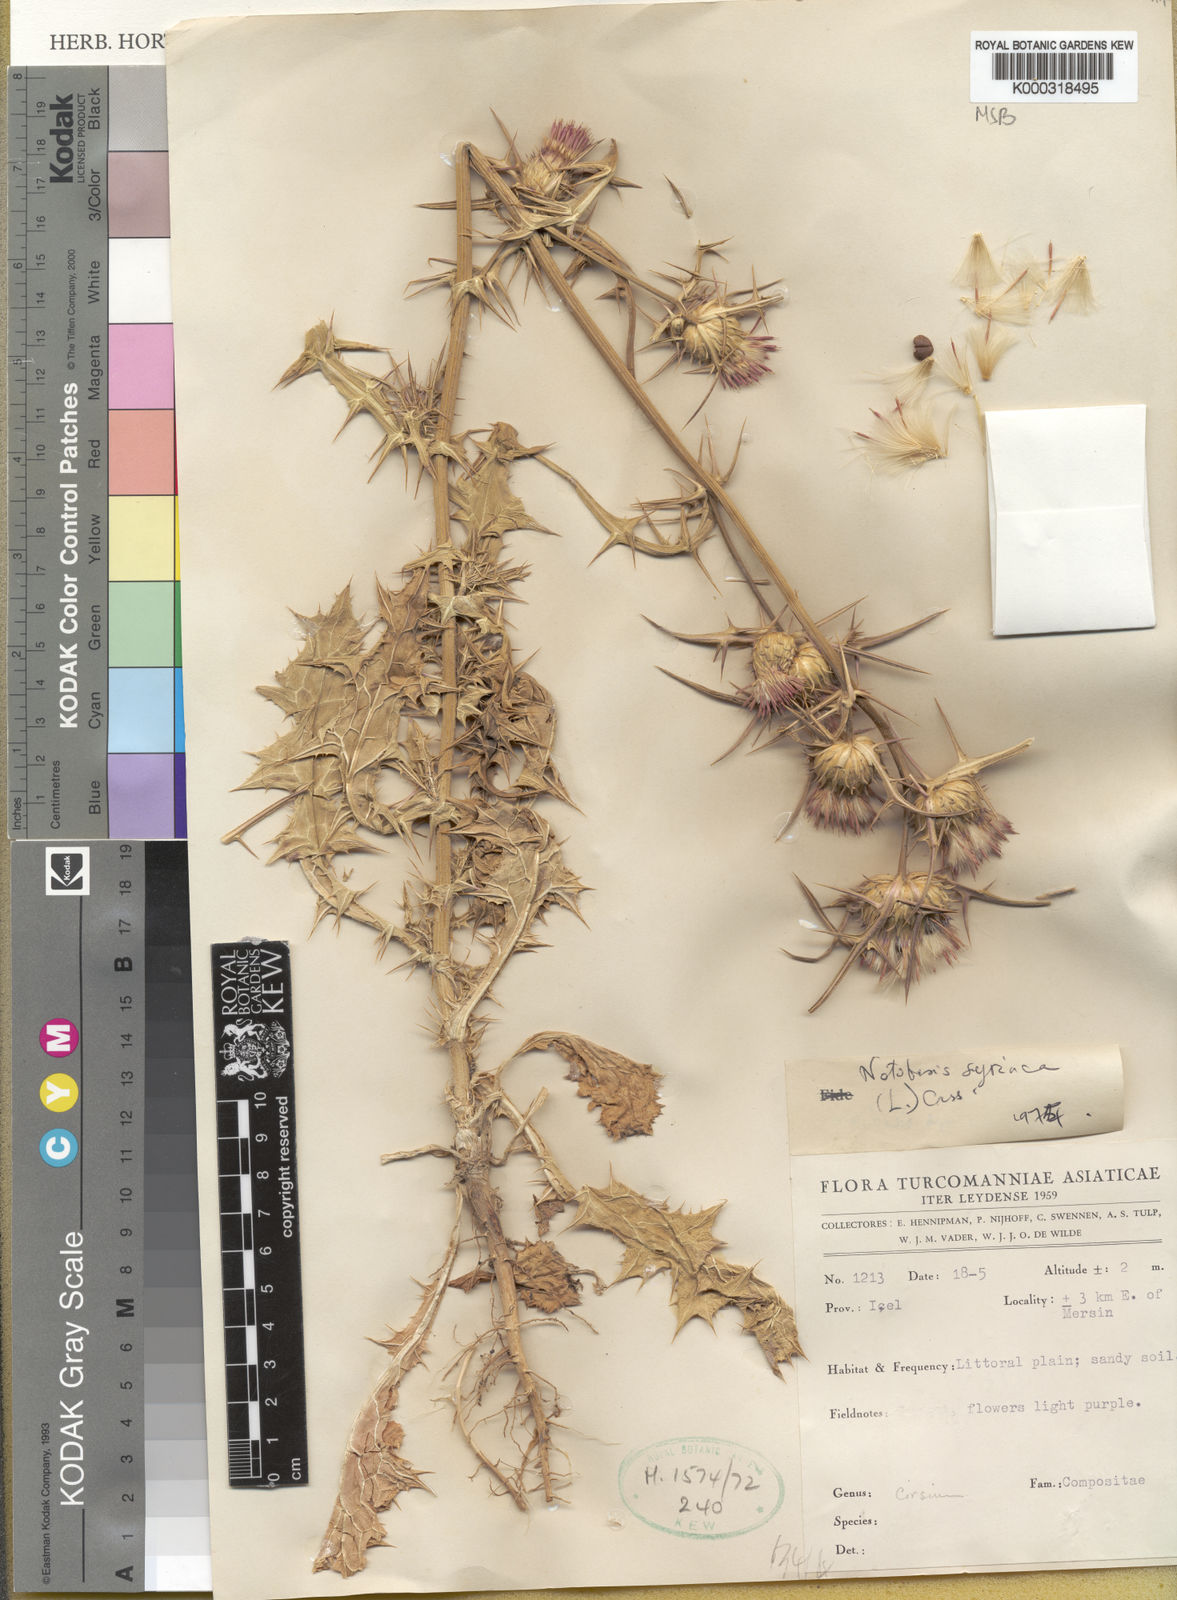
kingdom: Plantae
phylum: Tracheophyta
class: Magnoliopsida
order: Asterales
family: Asteraceae
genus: Notobasis
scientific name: Notobasis syriaca
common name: Syrian thistle
